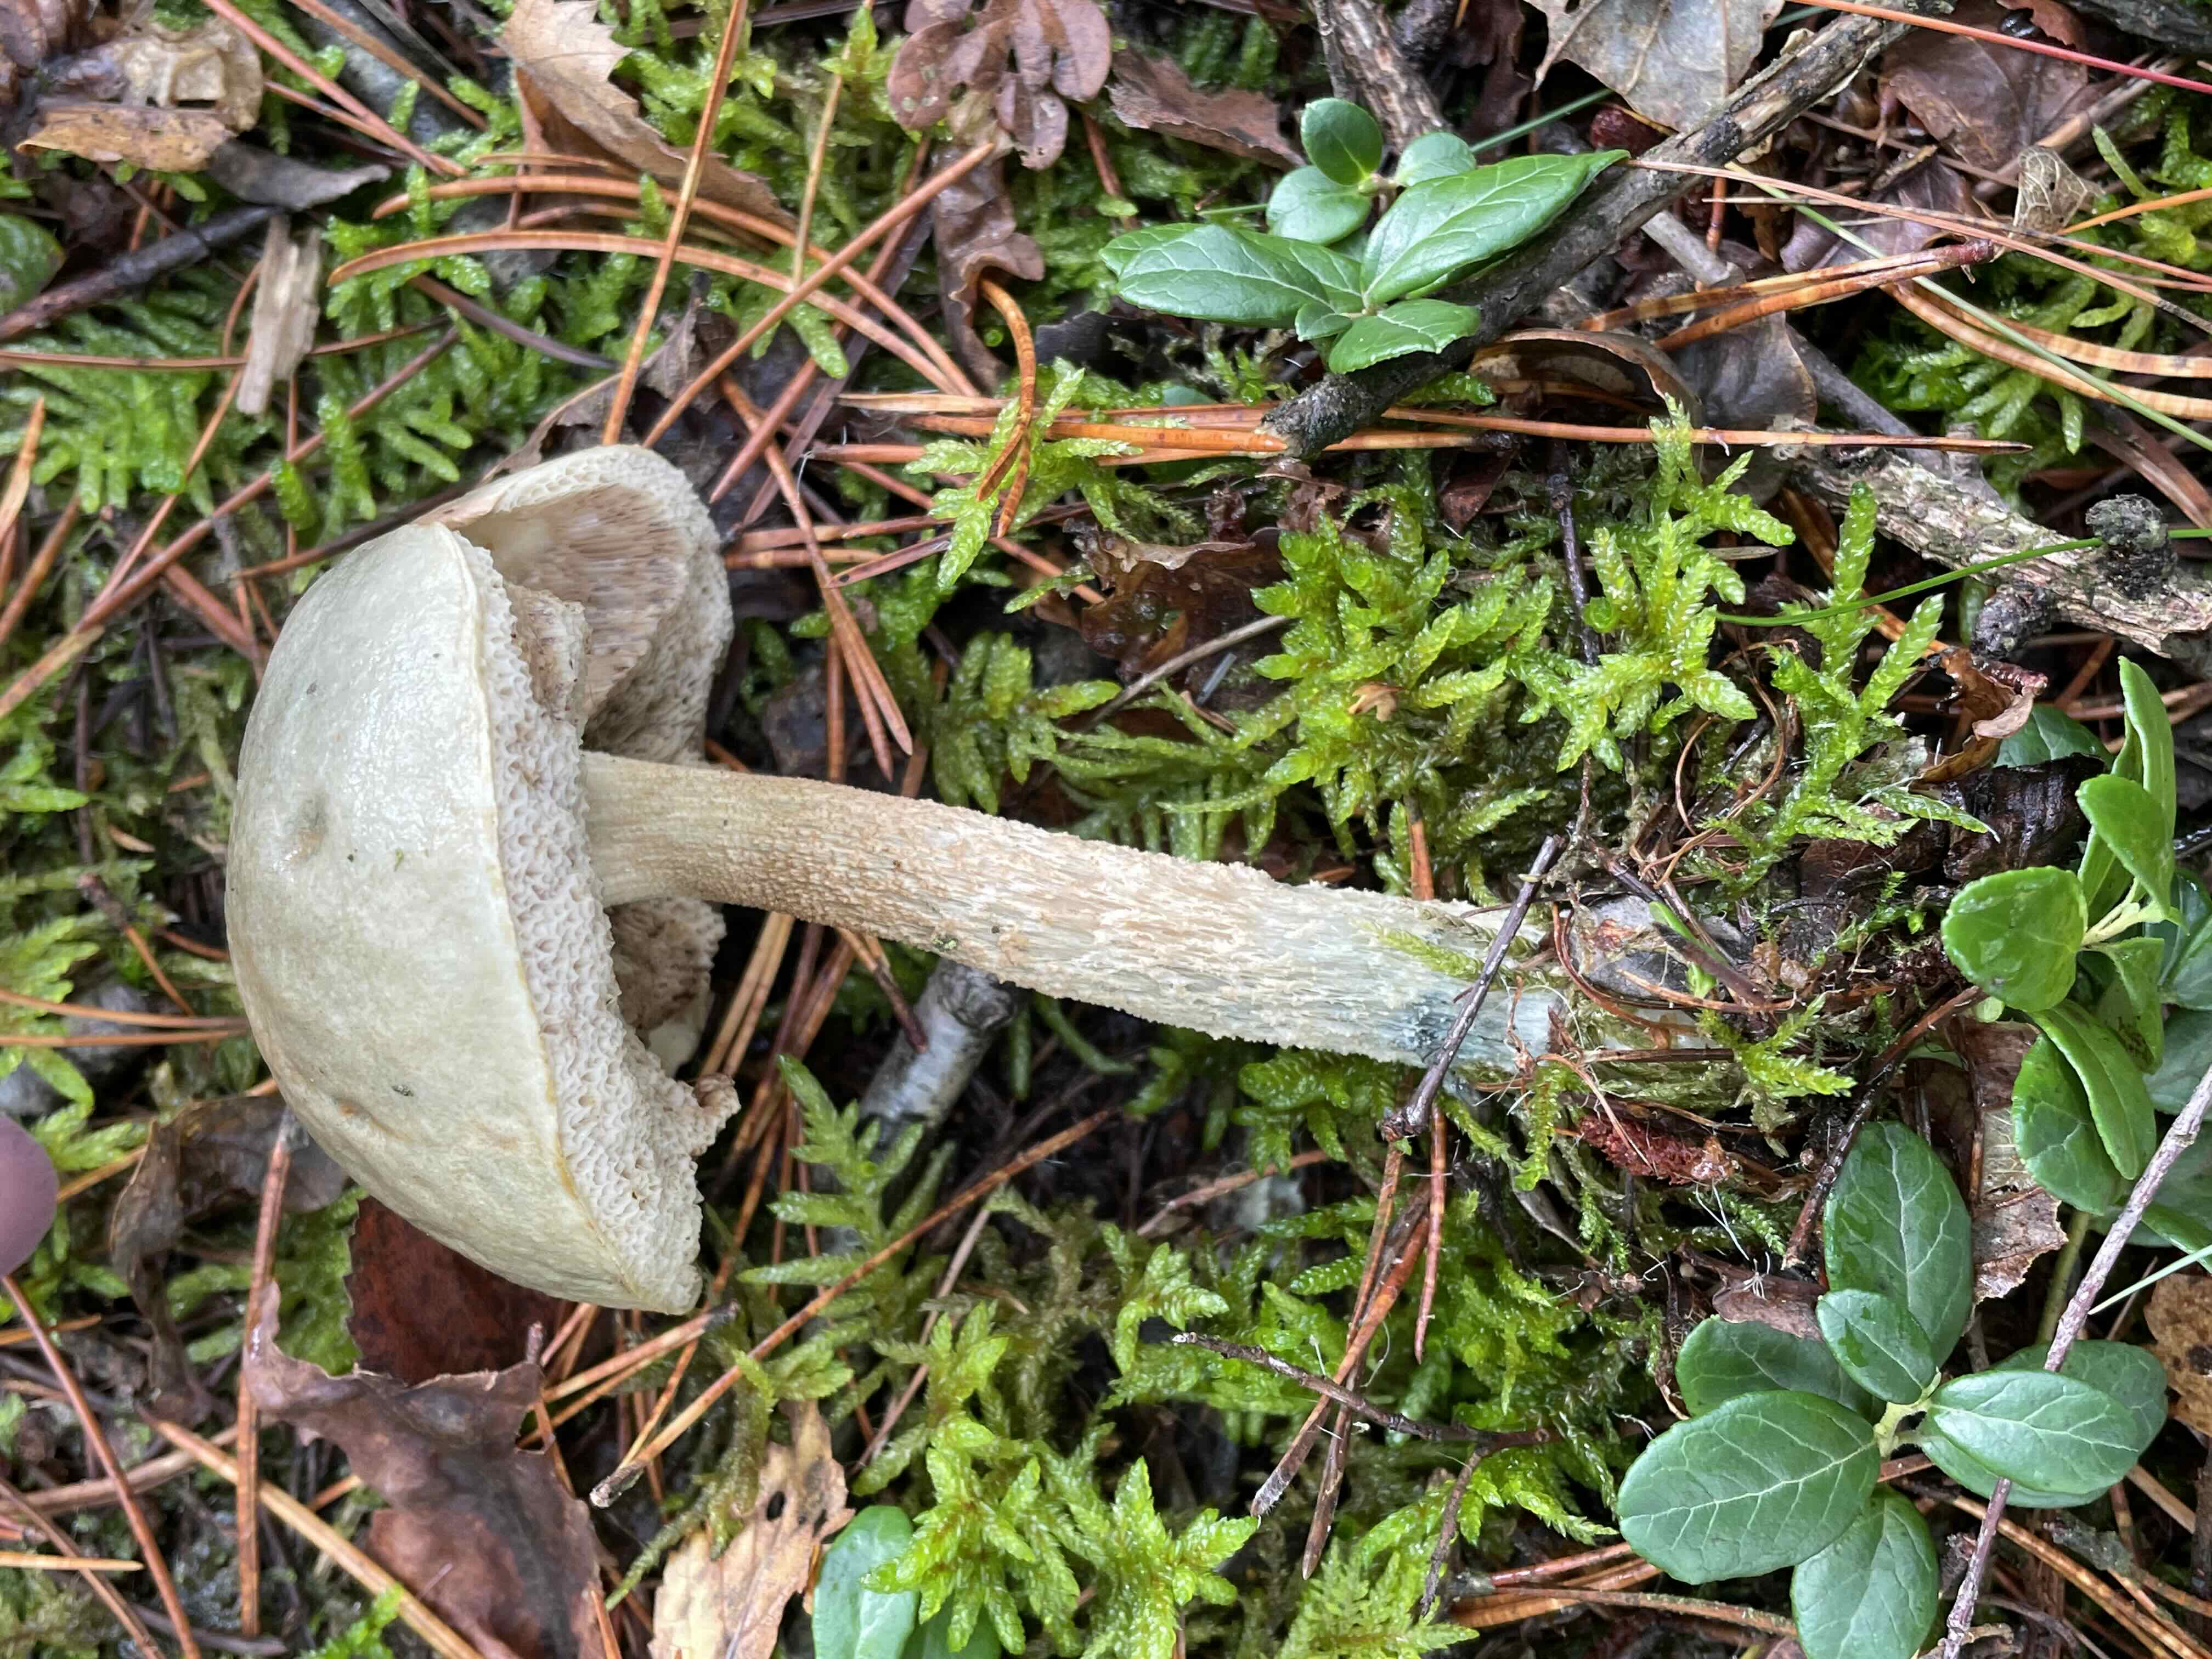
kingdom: Fungi
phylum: Basidiomycota
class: Agaricomycetes
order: Boletales
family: Boletaceae
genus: Leccinum
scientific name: Leccinum
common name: skælrørhat
